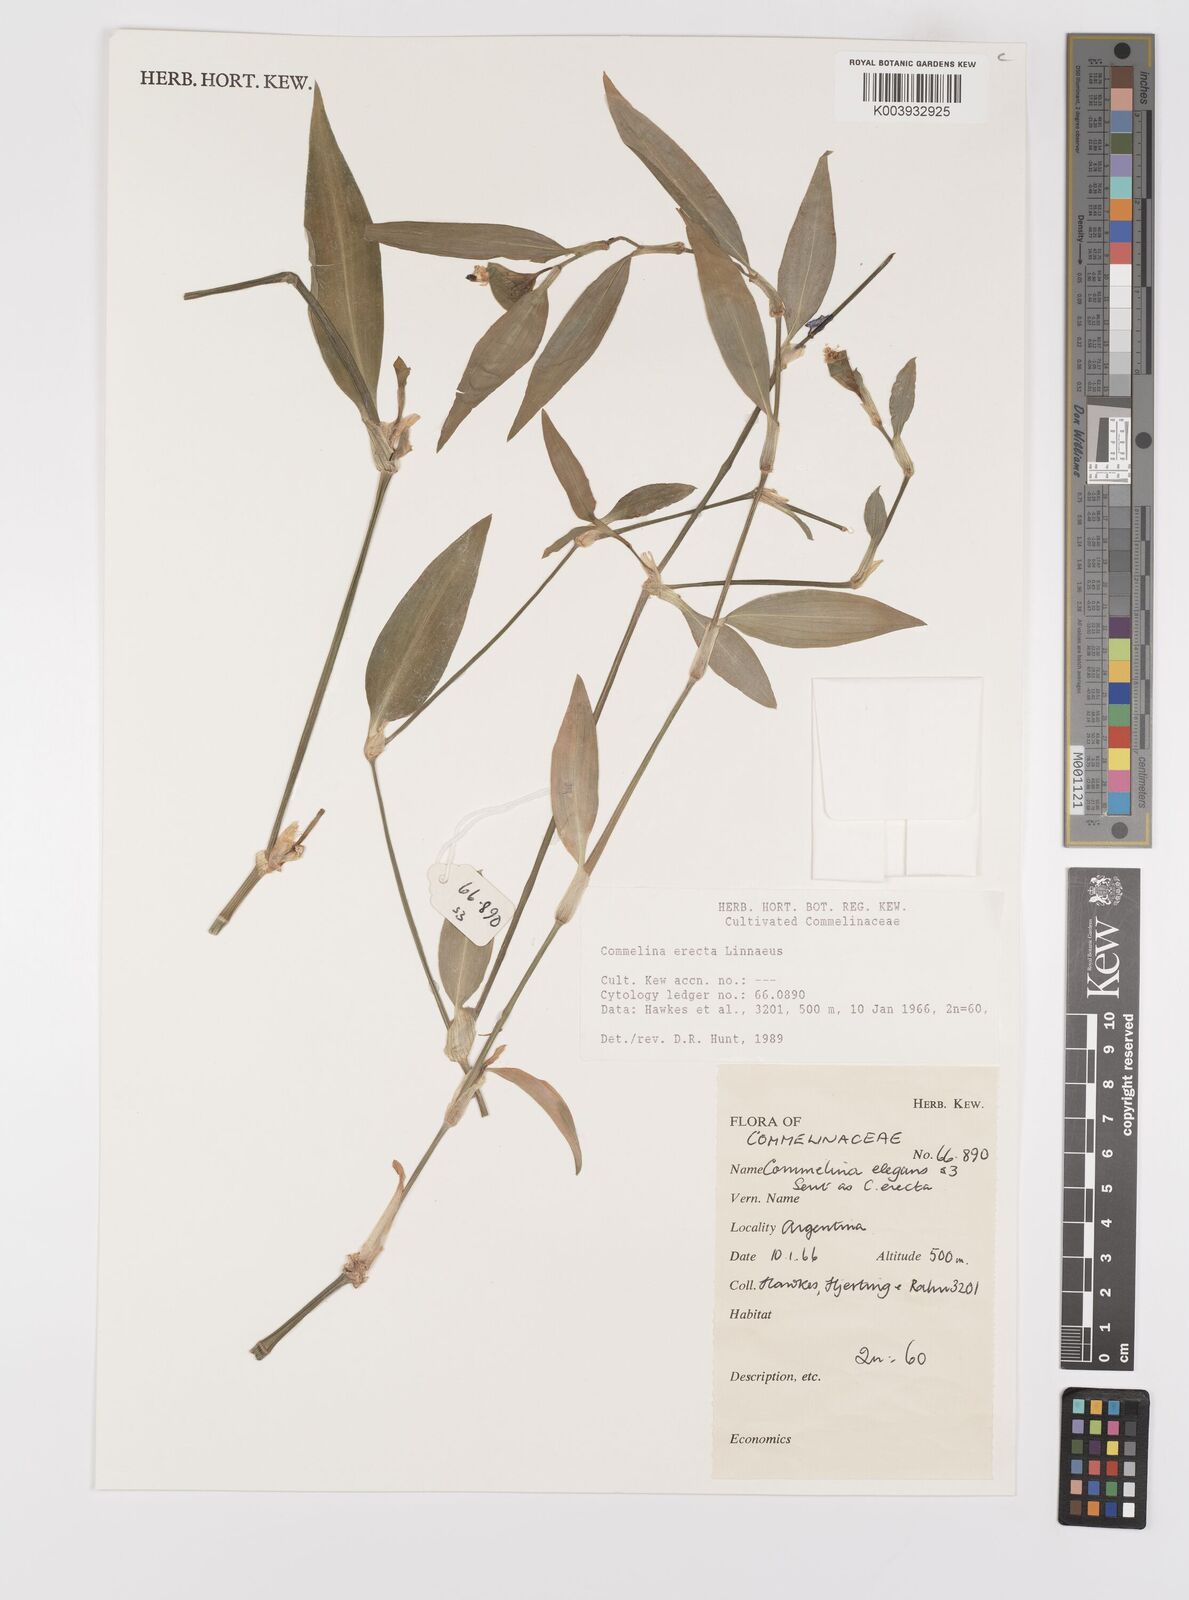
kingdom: Plantae
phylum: Tracheophyta
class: Liliopsida
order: Commelinales
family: Commelinaceae
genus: Commelina
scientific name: Commelina erecta
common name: Blousel blommetjie
